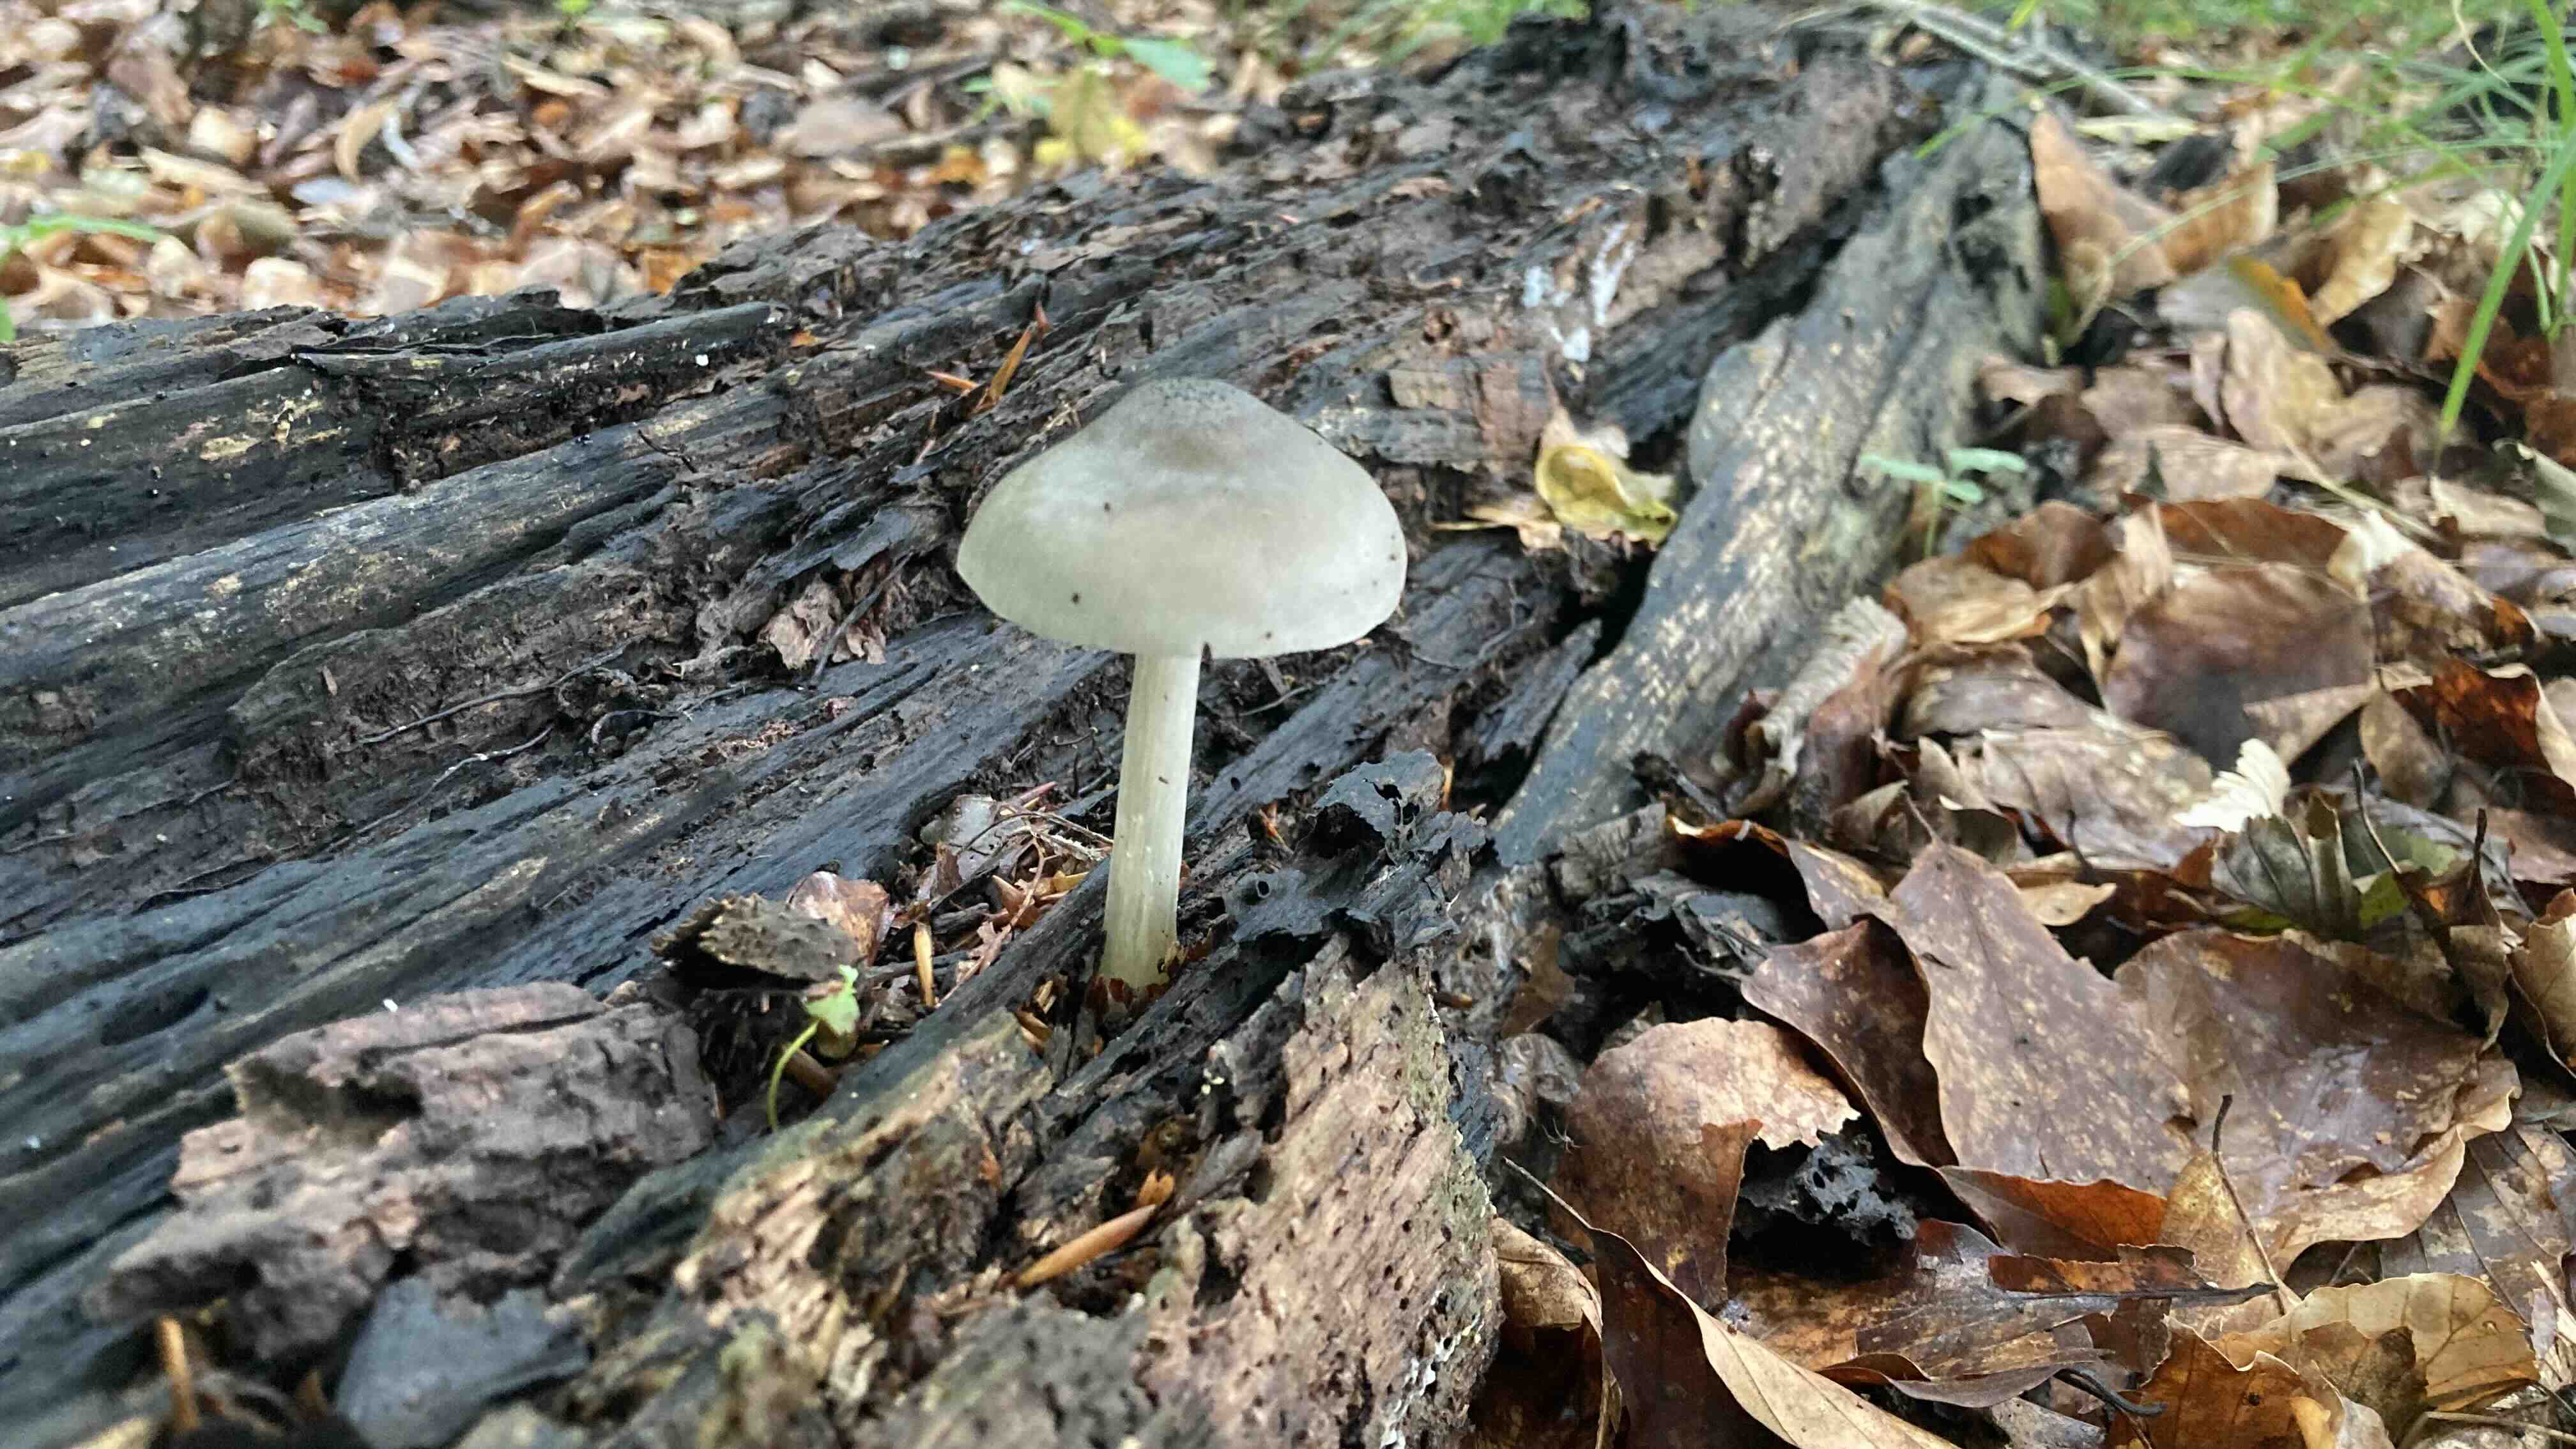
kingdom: Fungi
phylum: Basidiomycota
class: Agaricomycetes
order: Agaricales
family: Pluteaceae
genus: Pluteus
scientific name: Pluteus salicinus
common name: stiv skærmhat
